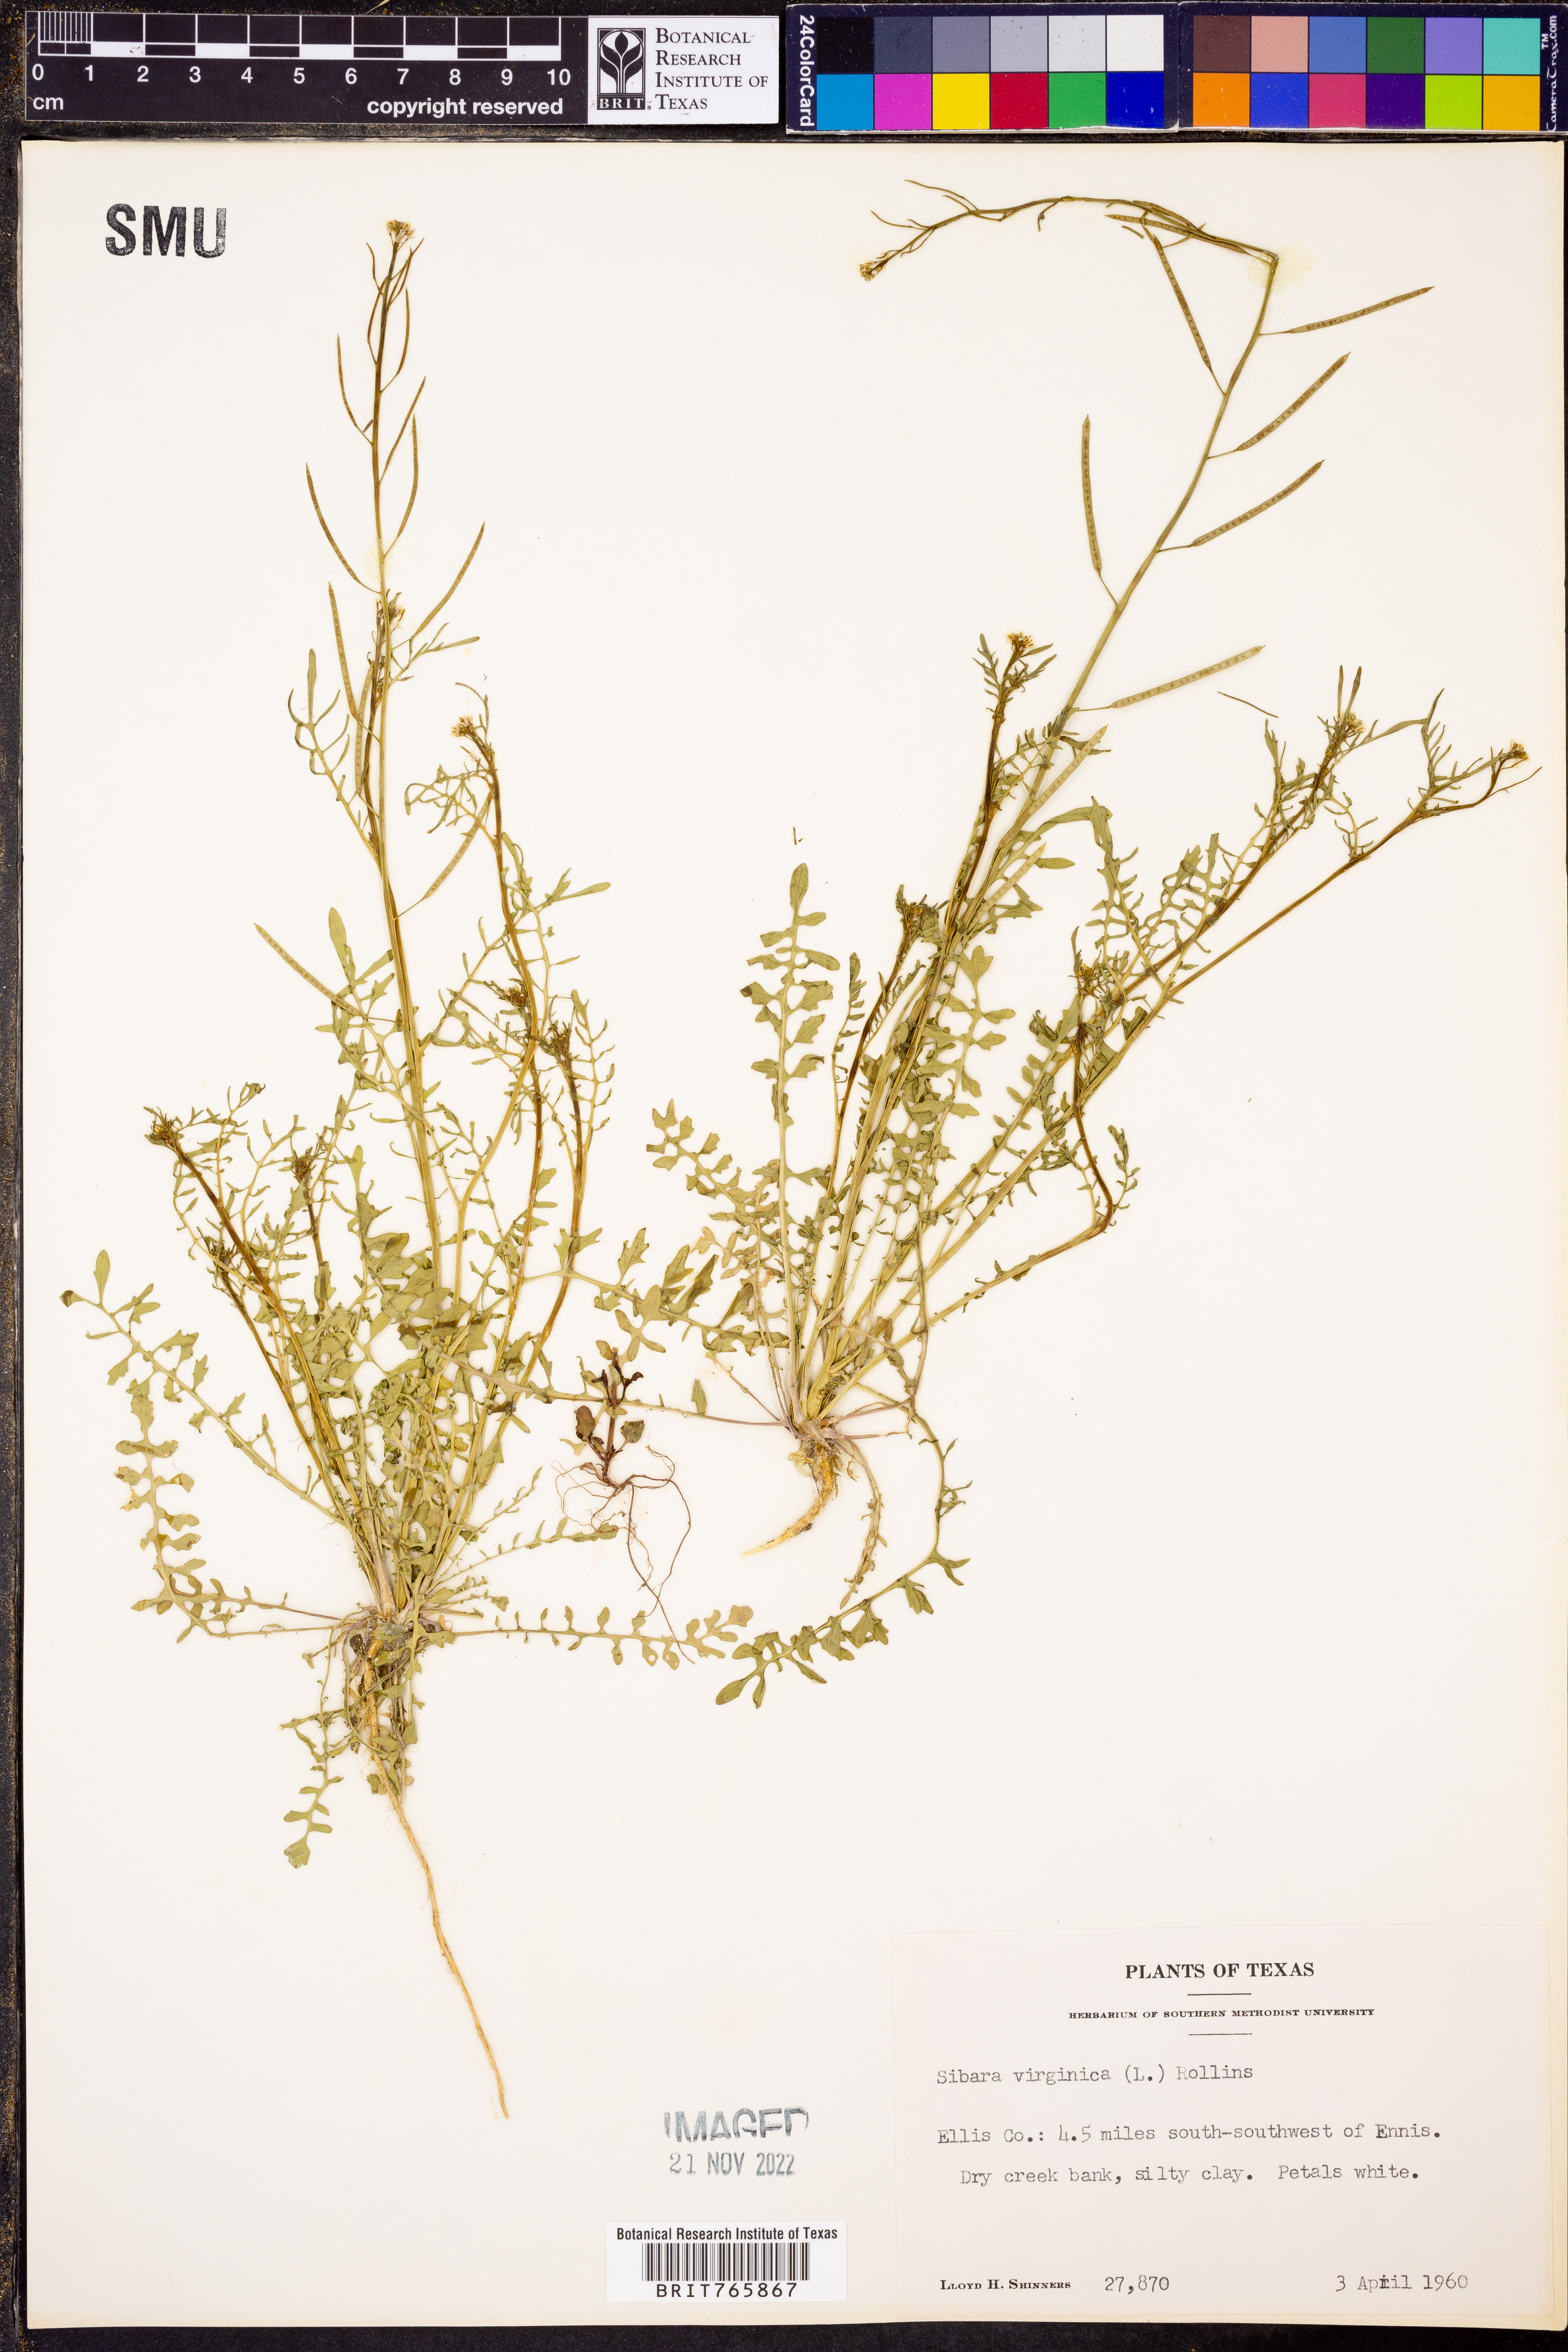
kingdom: Plantae
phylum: Tracheophyta
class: Magnoliopsida
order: Brassicales
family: Brassicaceae
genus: Planodes
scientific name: Planodes virginicum
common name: Virginia cress
